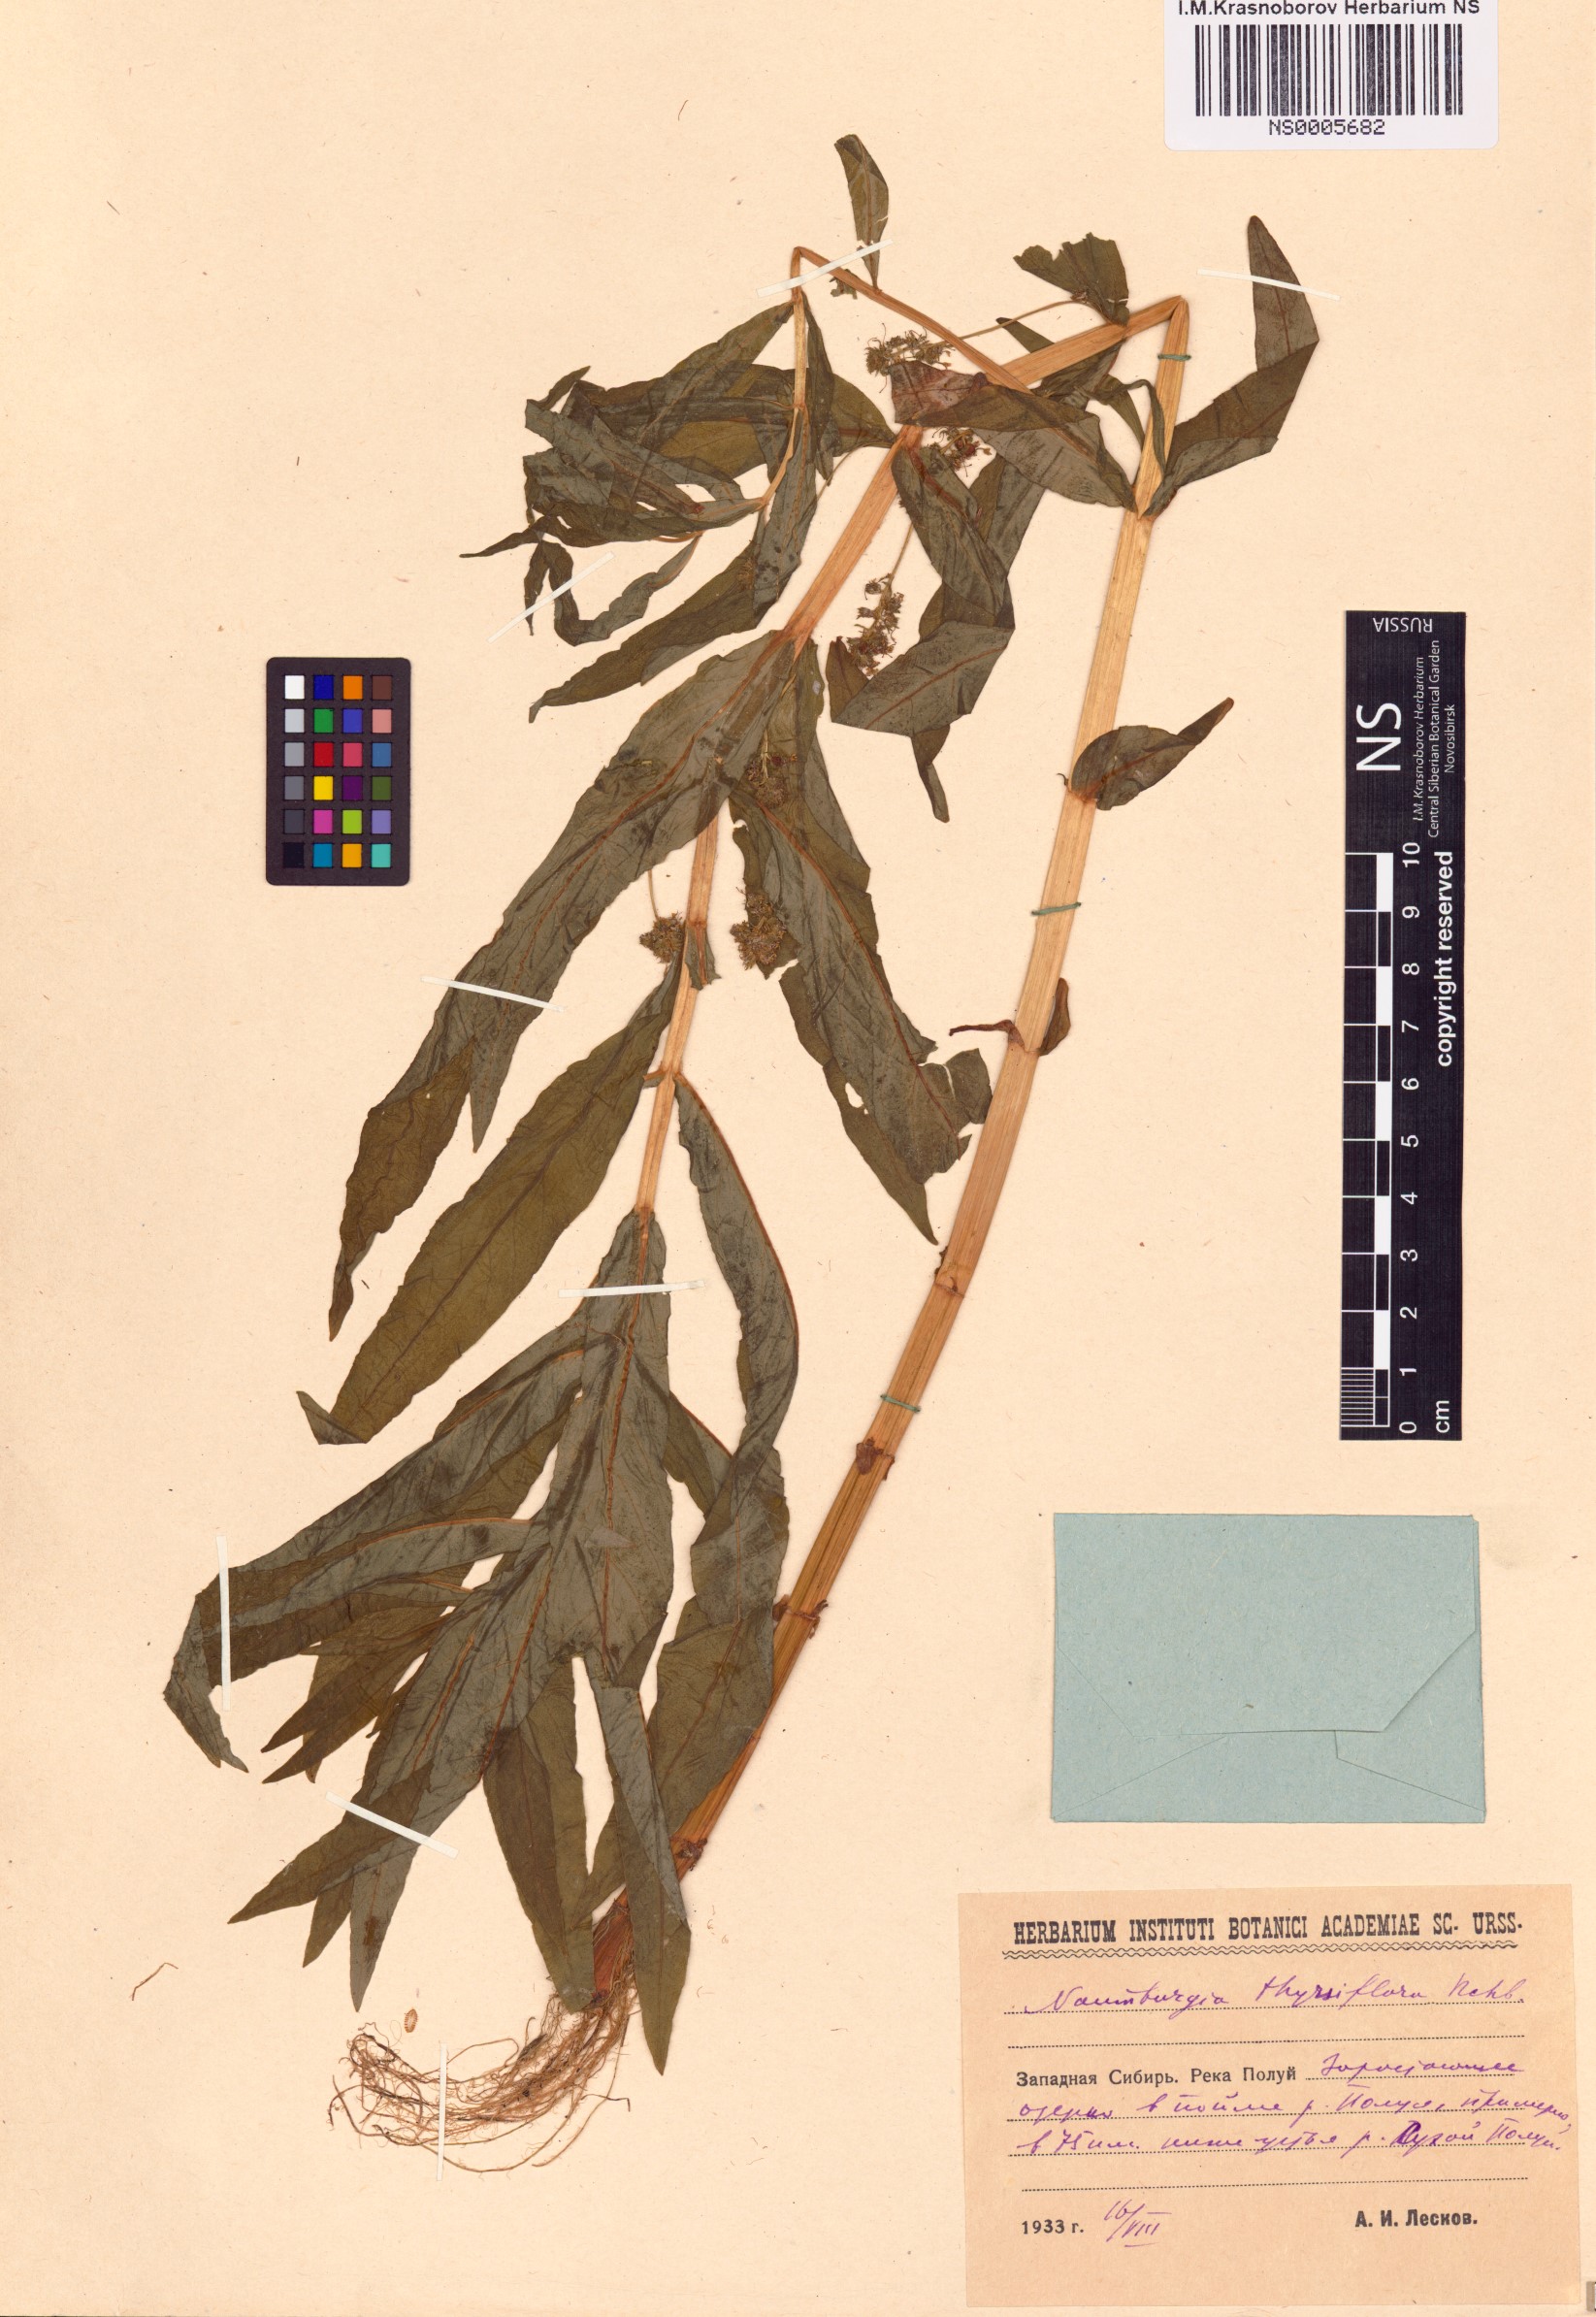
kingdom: Plantae
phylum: Tracheophyta
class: Magnoliopsida
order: Ericales
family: Primulaceae
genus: Lysimachia
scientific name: Lysimachia thyrsiflora
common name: Tufted loosestrife
